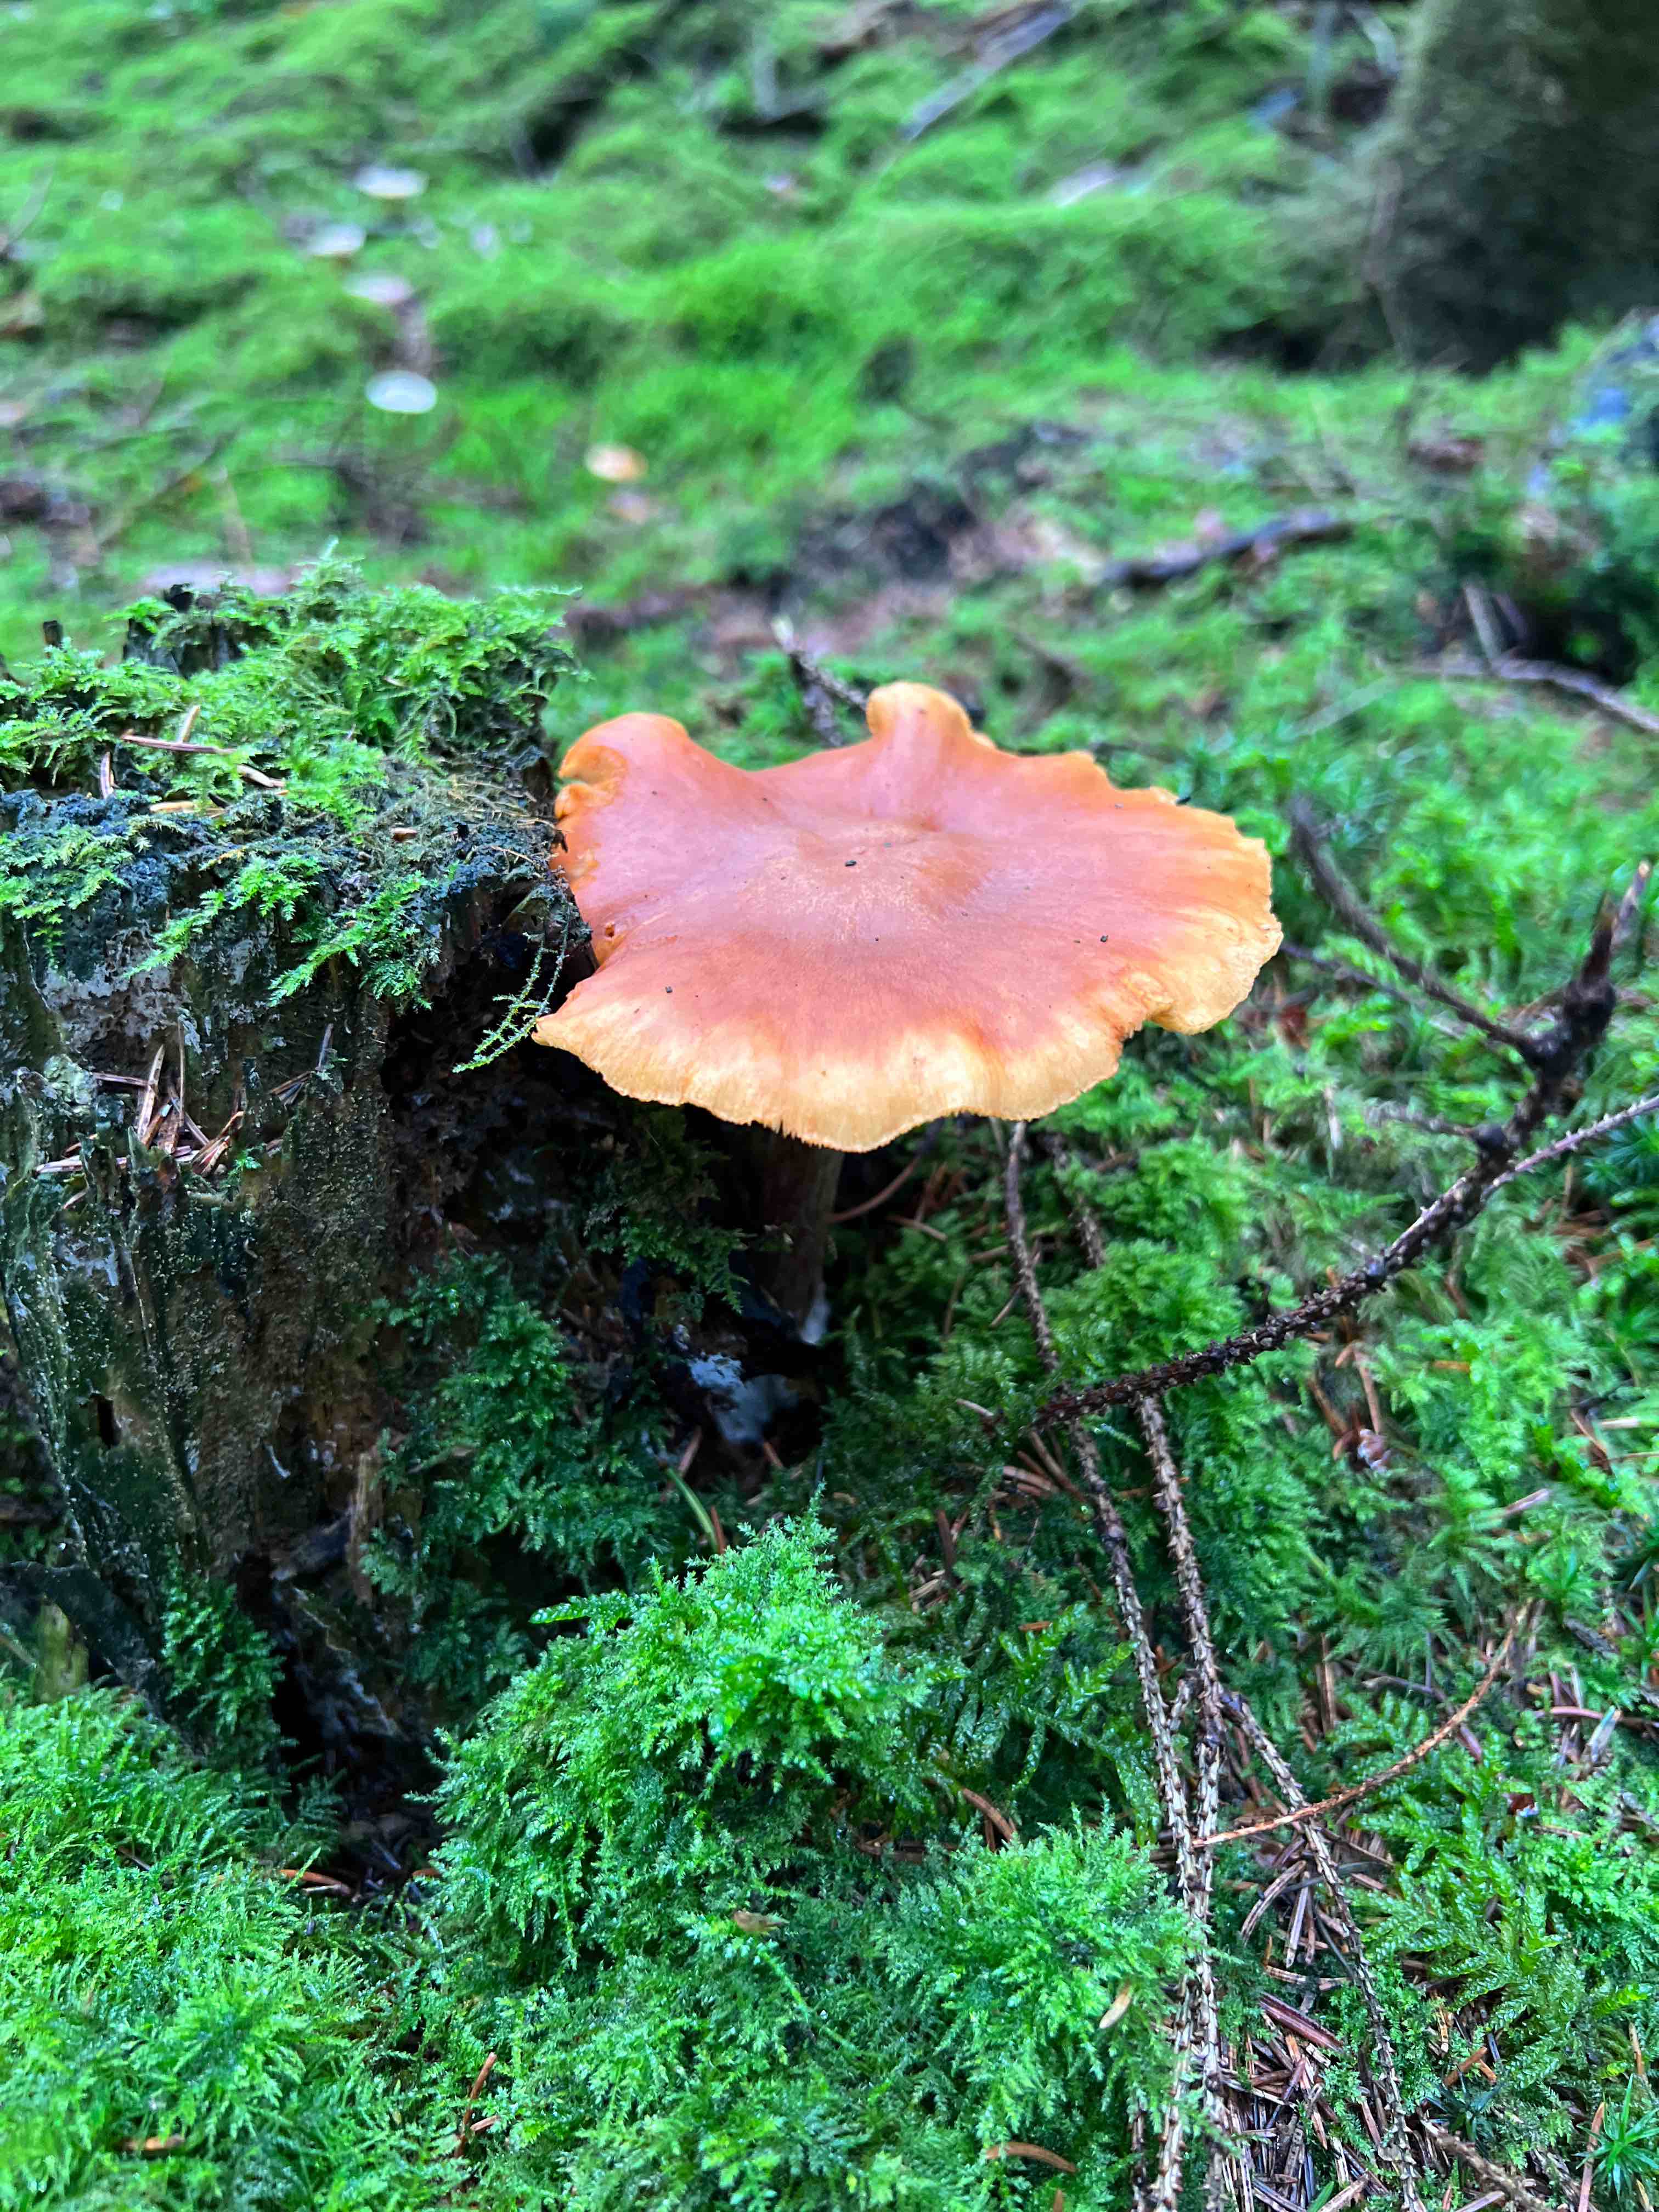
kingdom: Fungi
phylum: Basidiomycota
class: Agaricomycetes
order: Agaricales
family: Hymenogastraceae
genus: Gymnopilus
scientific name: Gymnopilus penetrans
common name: plettet flammehat
